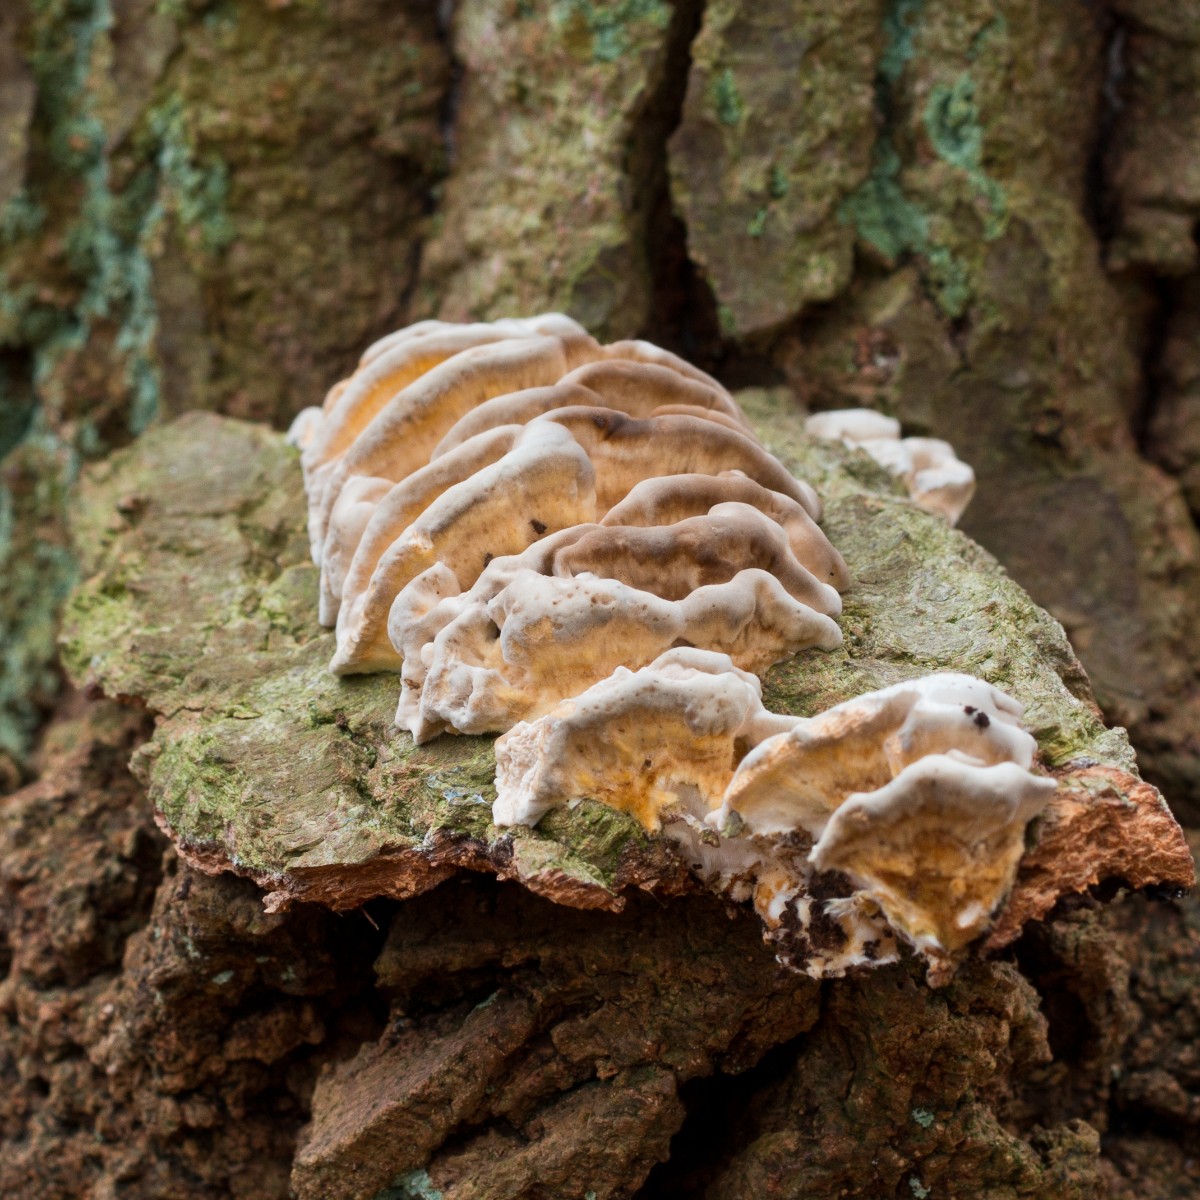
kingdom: Fungi
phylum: Basidiomycota
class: Agaricomycetes
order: Polyporales
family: Polyporaceae
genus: Trametes
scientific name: Trametes versicolor
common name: broget læderporesvamp
